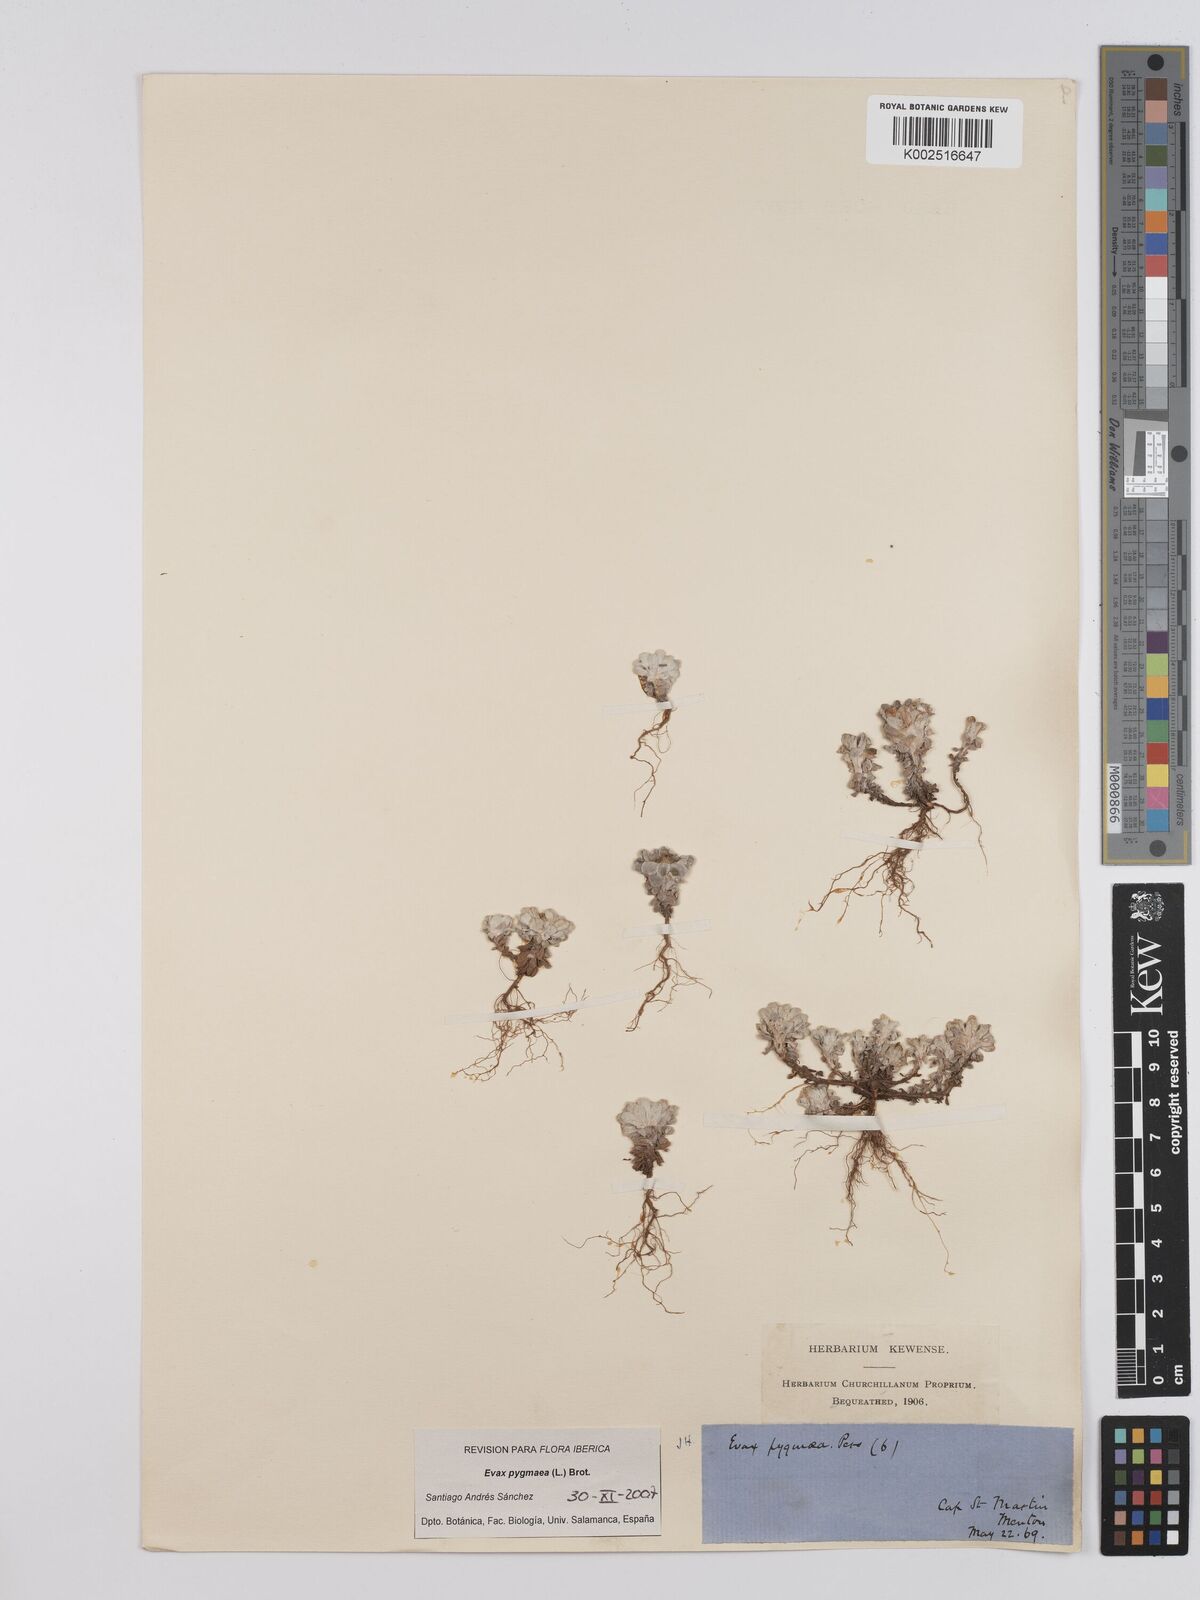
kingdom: Plantae
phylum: Tracheophyta
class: Magnoliopsida
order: Asterales
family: Asteraceae
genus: Filago
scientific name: Filago pygmaea
